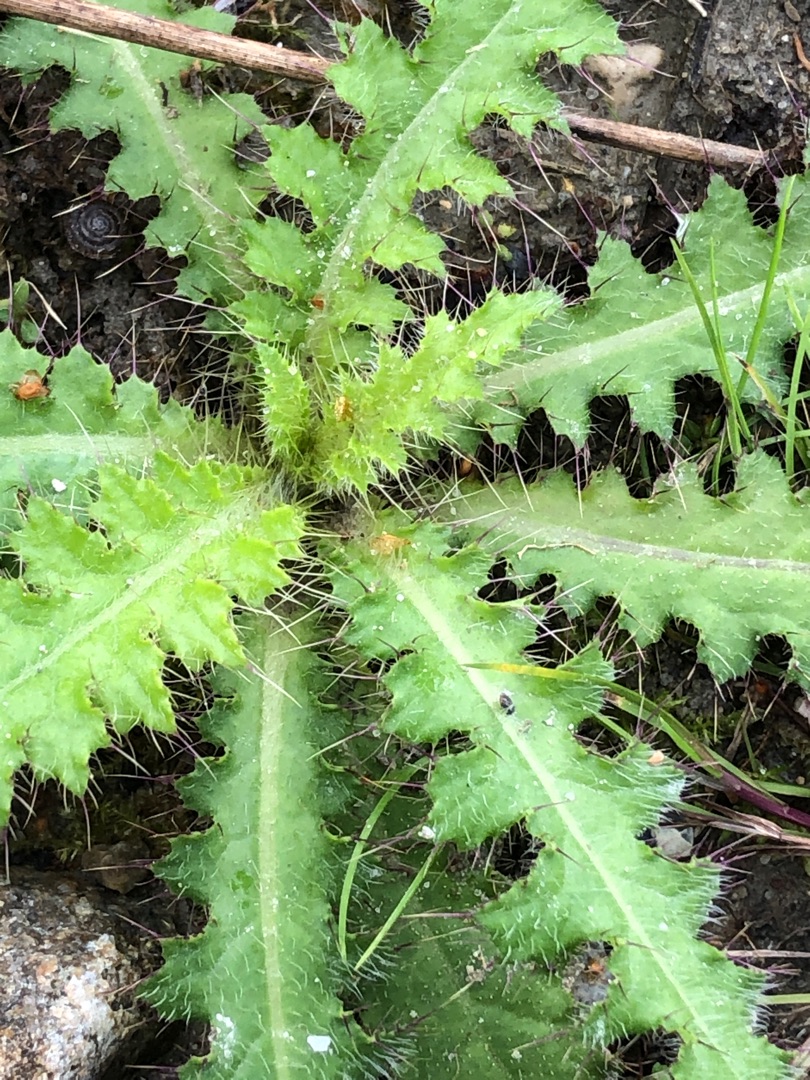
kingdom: Plantae
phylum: Tracheophyta
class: Magnoliopsida
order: Asterales
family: Asteraceae
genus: Cirsium
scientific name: Cirsium palustre
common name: Kær-tidsel
